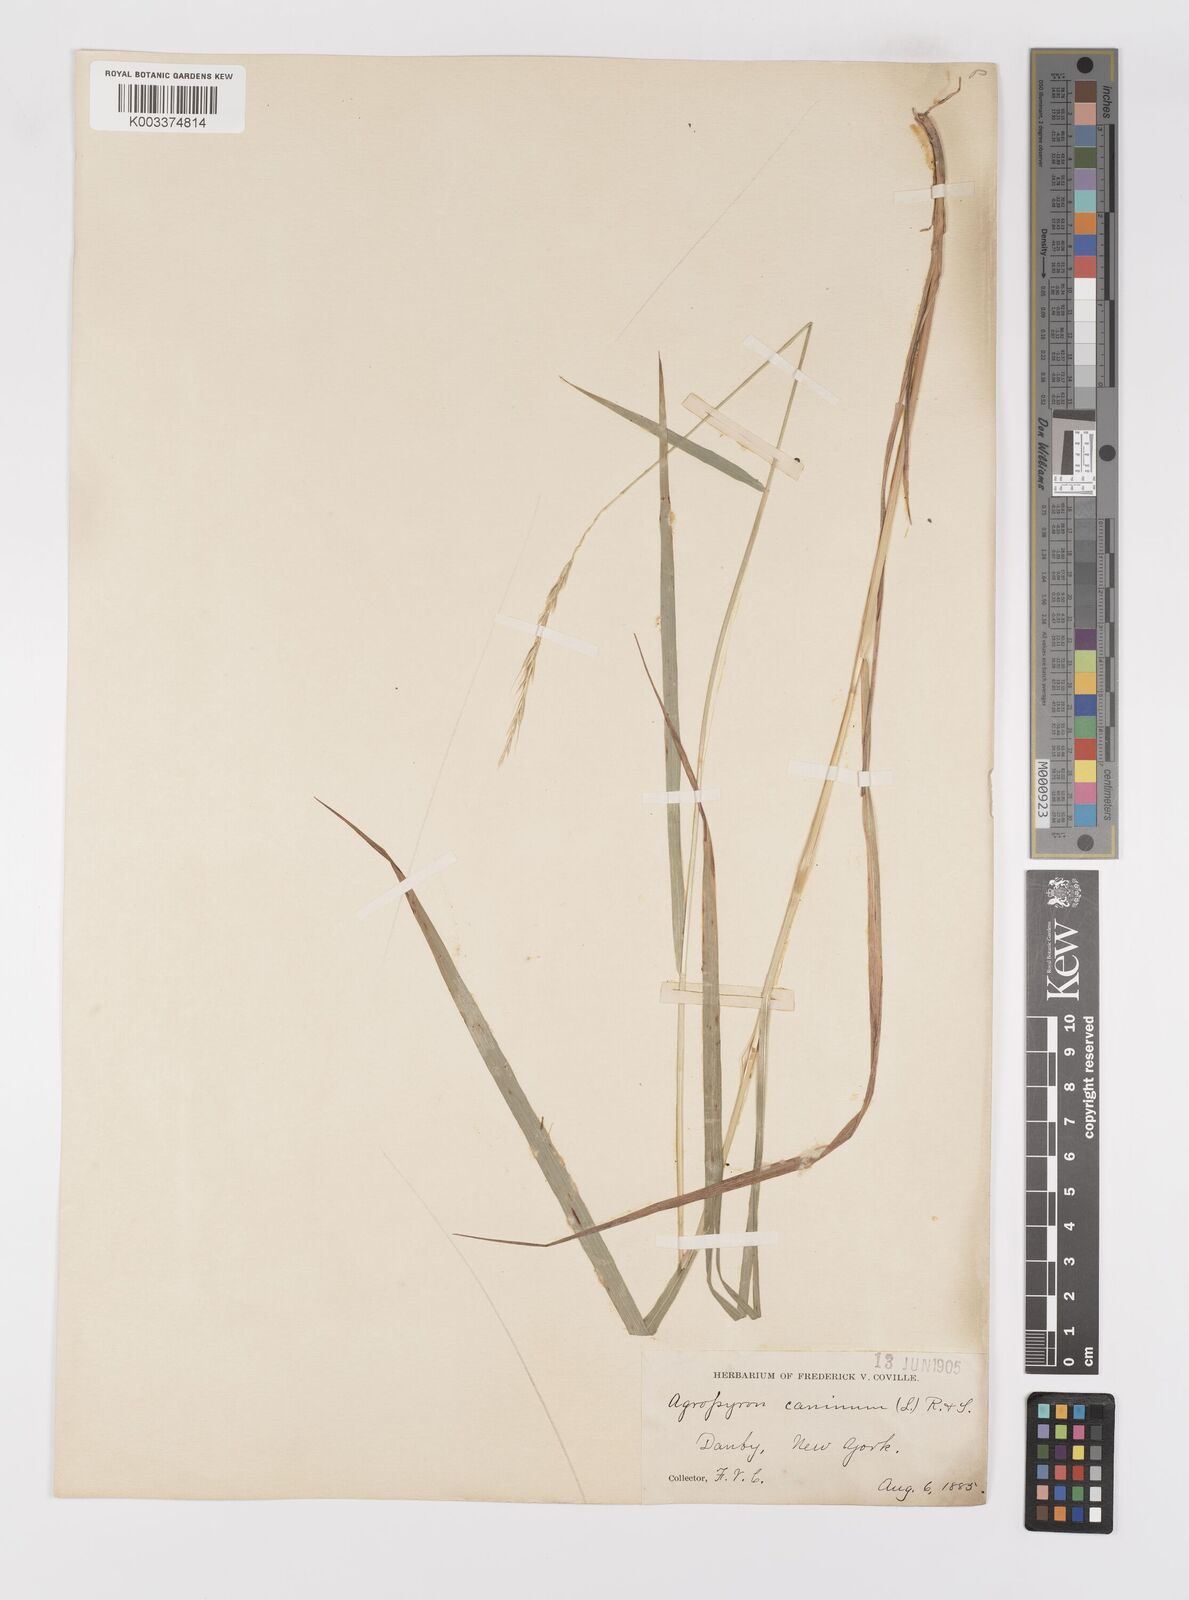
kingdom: Plantae
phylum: Tracheophyta
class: Liliopsida
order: Poales
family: Poaceae
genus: Elymus
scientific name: Elymus violaceus
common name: Arctic wheatgrass
